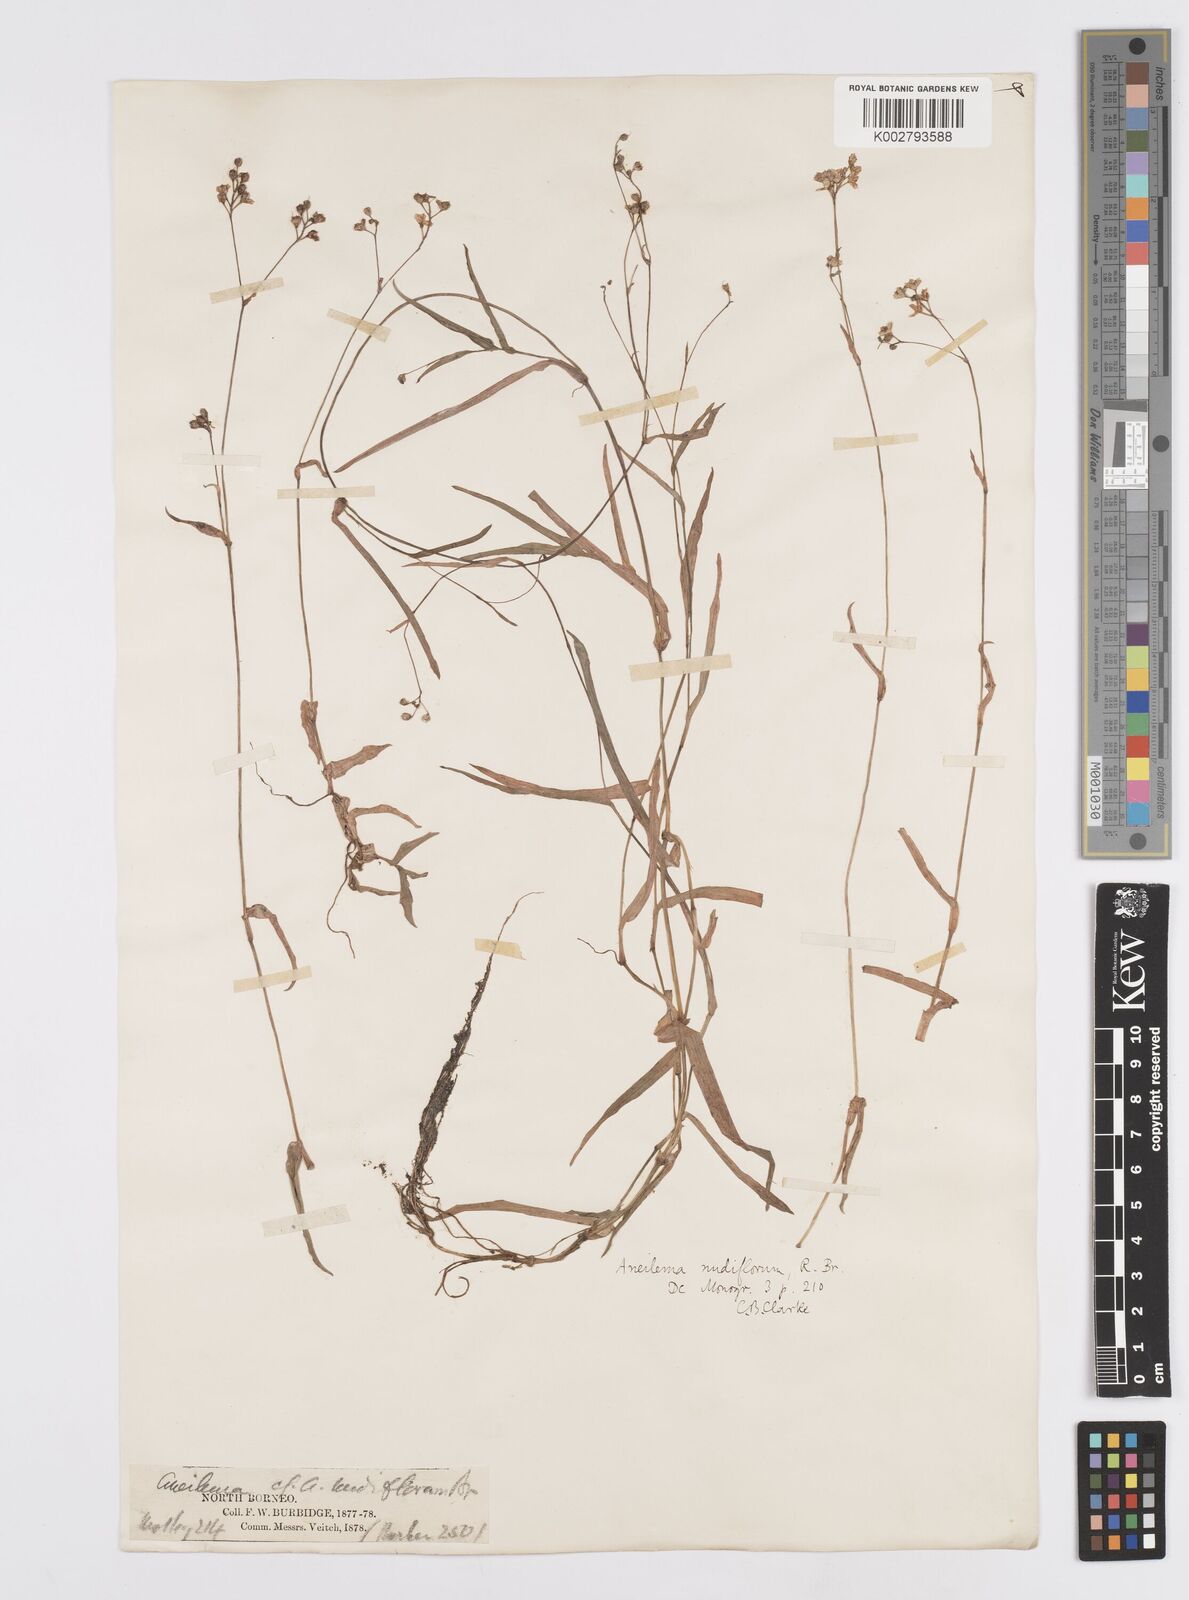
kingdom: Plantae
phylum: Tracheophyta
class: Liliopsida
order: Commelinales
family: Commelinaceae
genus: Murdannia
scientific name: Murdannia nudiflora
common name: Nakedstem dewflower
